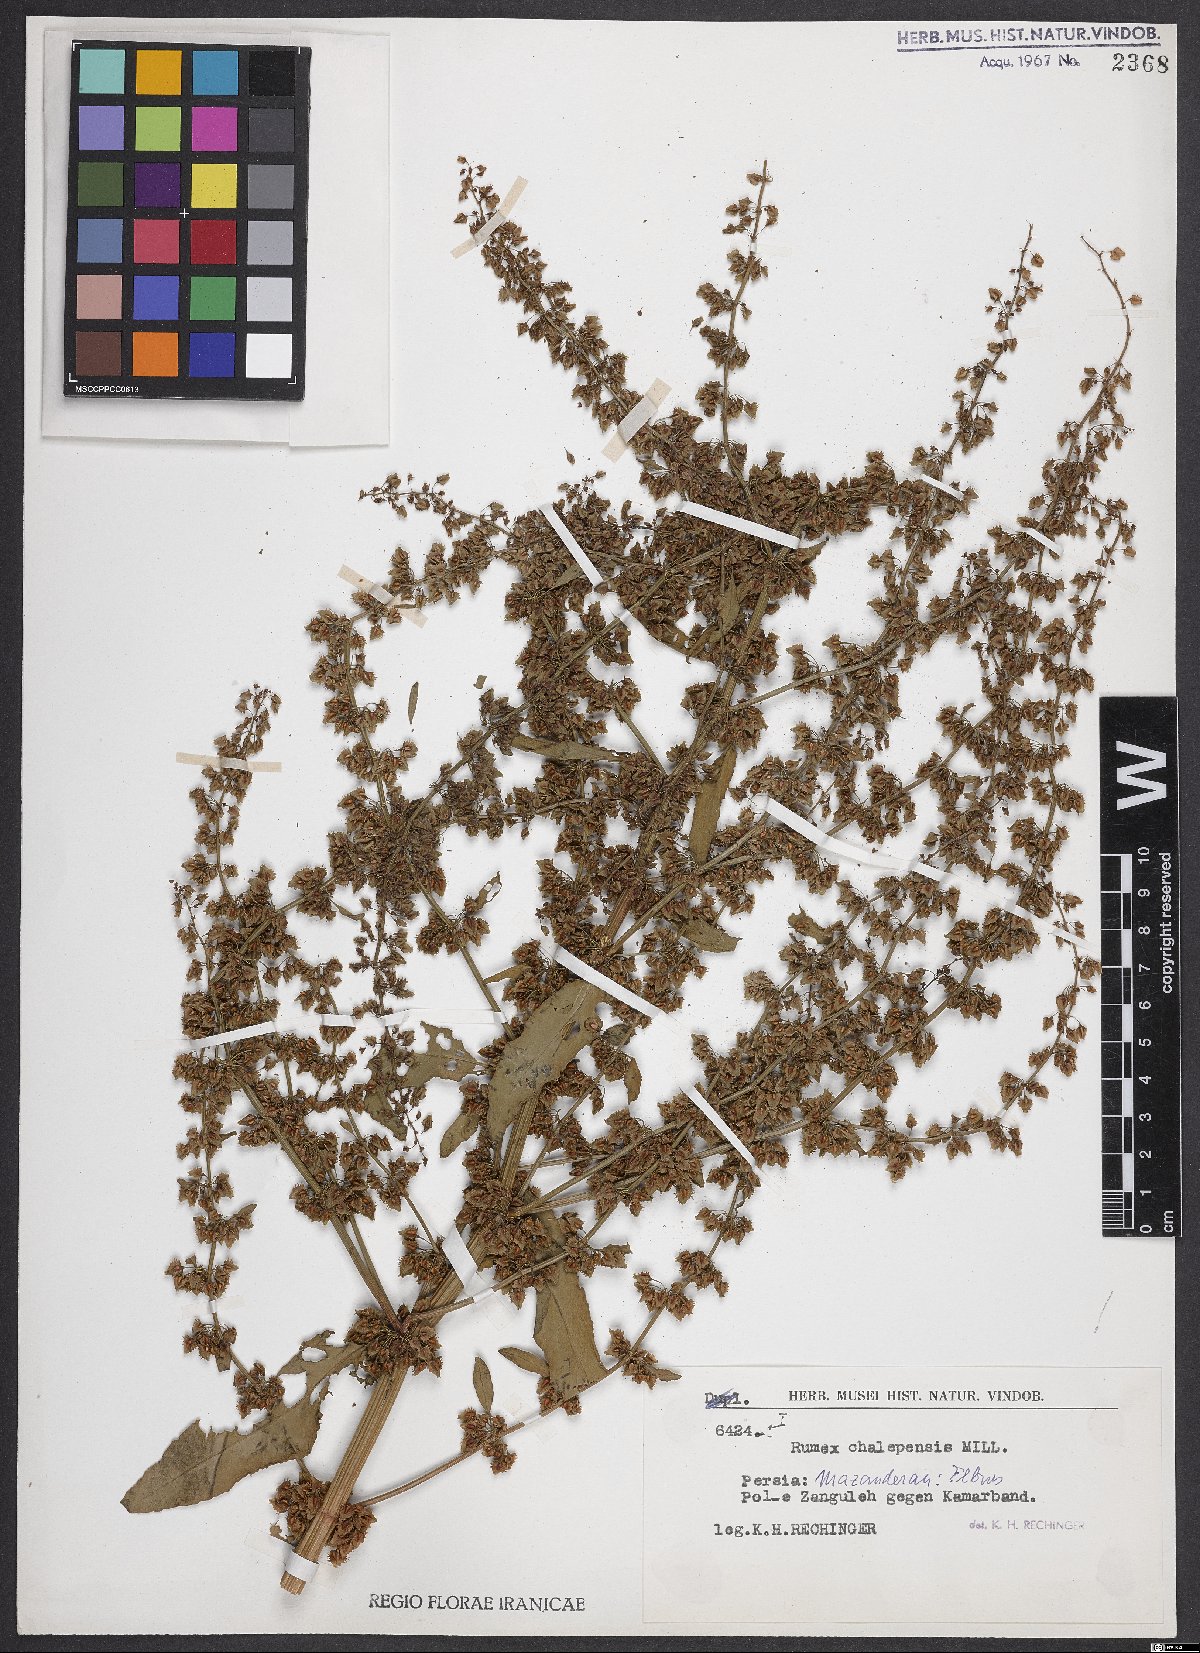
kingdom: Plantae
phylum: Tracheophyta
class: Magnoliopsida
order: Caryophyllales
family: Polygonaceae
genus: Rumex
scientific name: Rumex chalepensis
